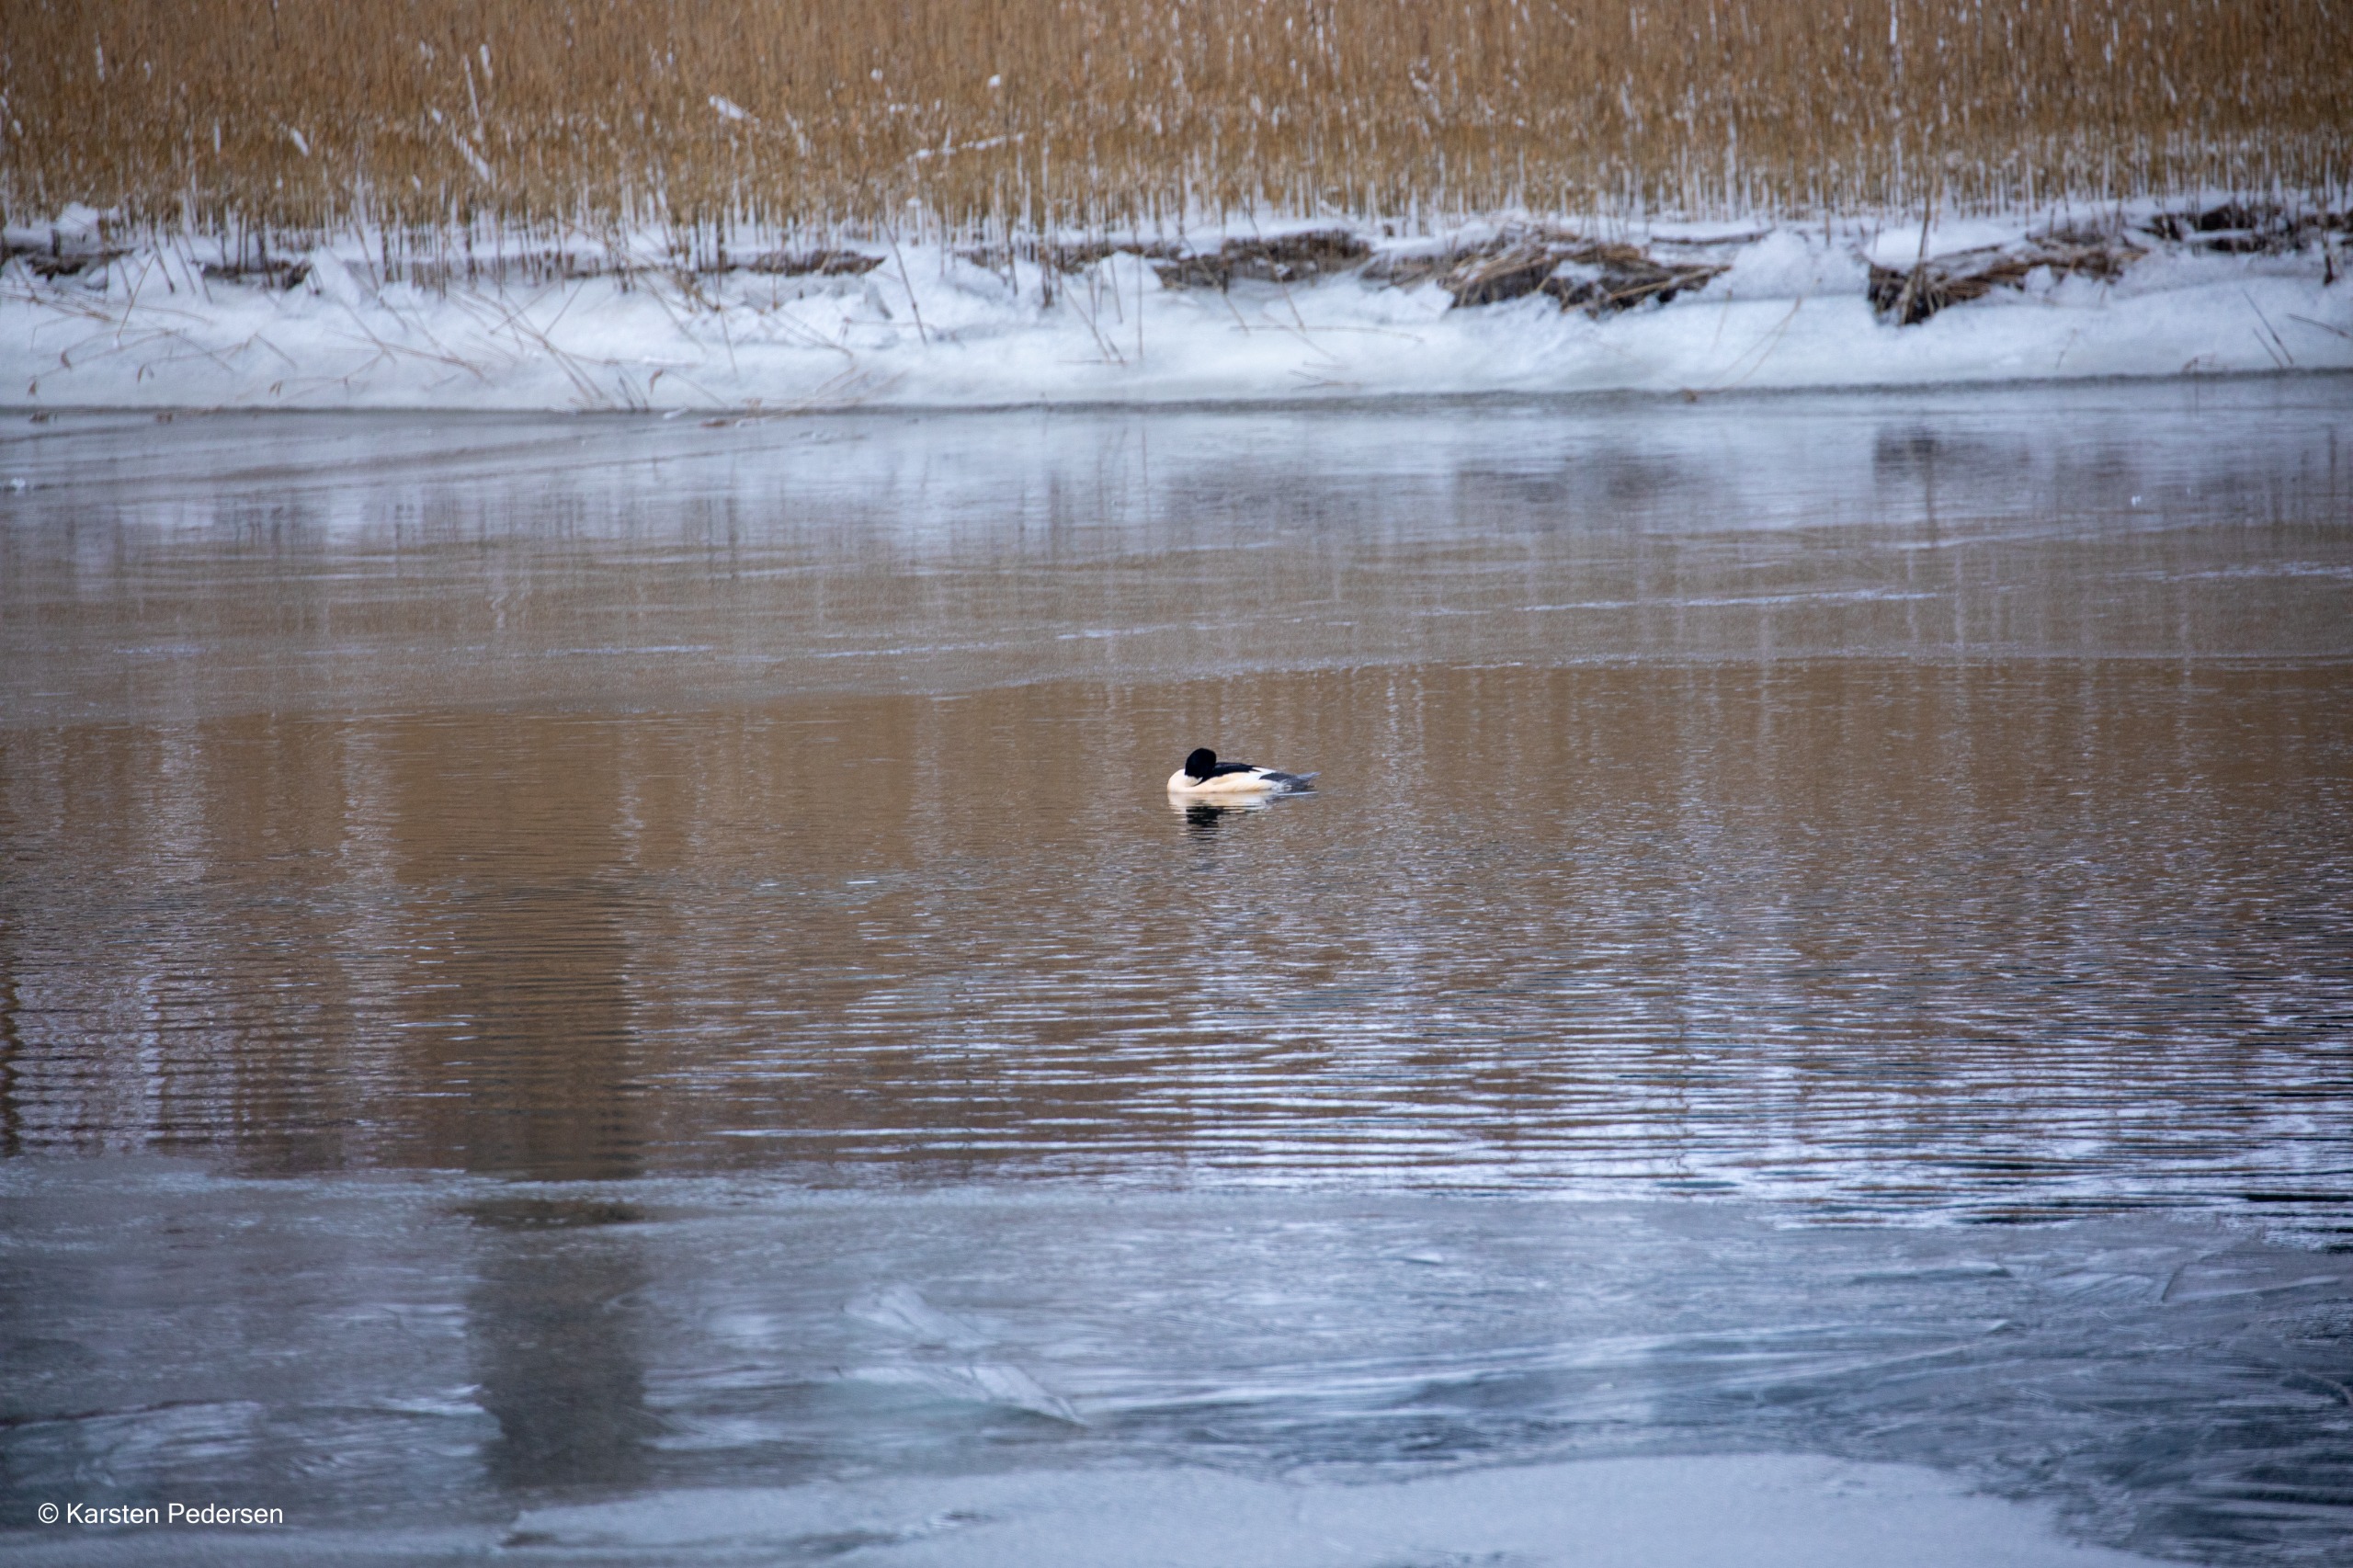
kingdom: Animalia
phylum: Chordata
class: Aves
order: Anseriformes
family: Anatidae
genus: Mergus
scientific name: Mergus merganser
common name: Stor skallesluger
